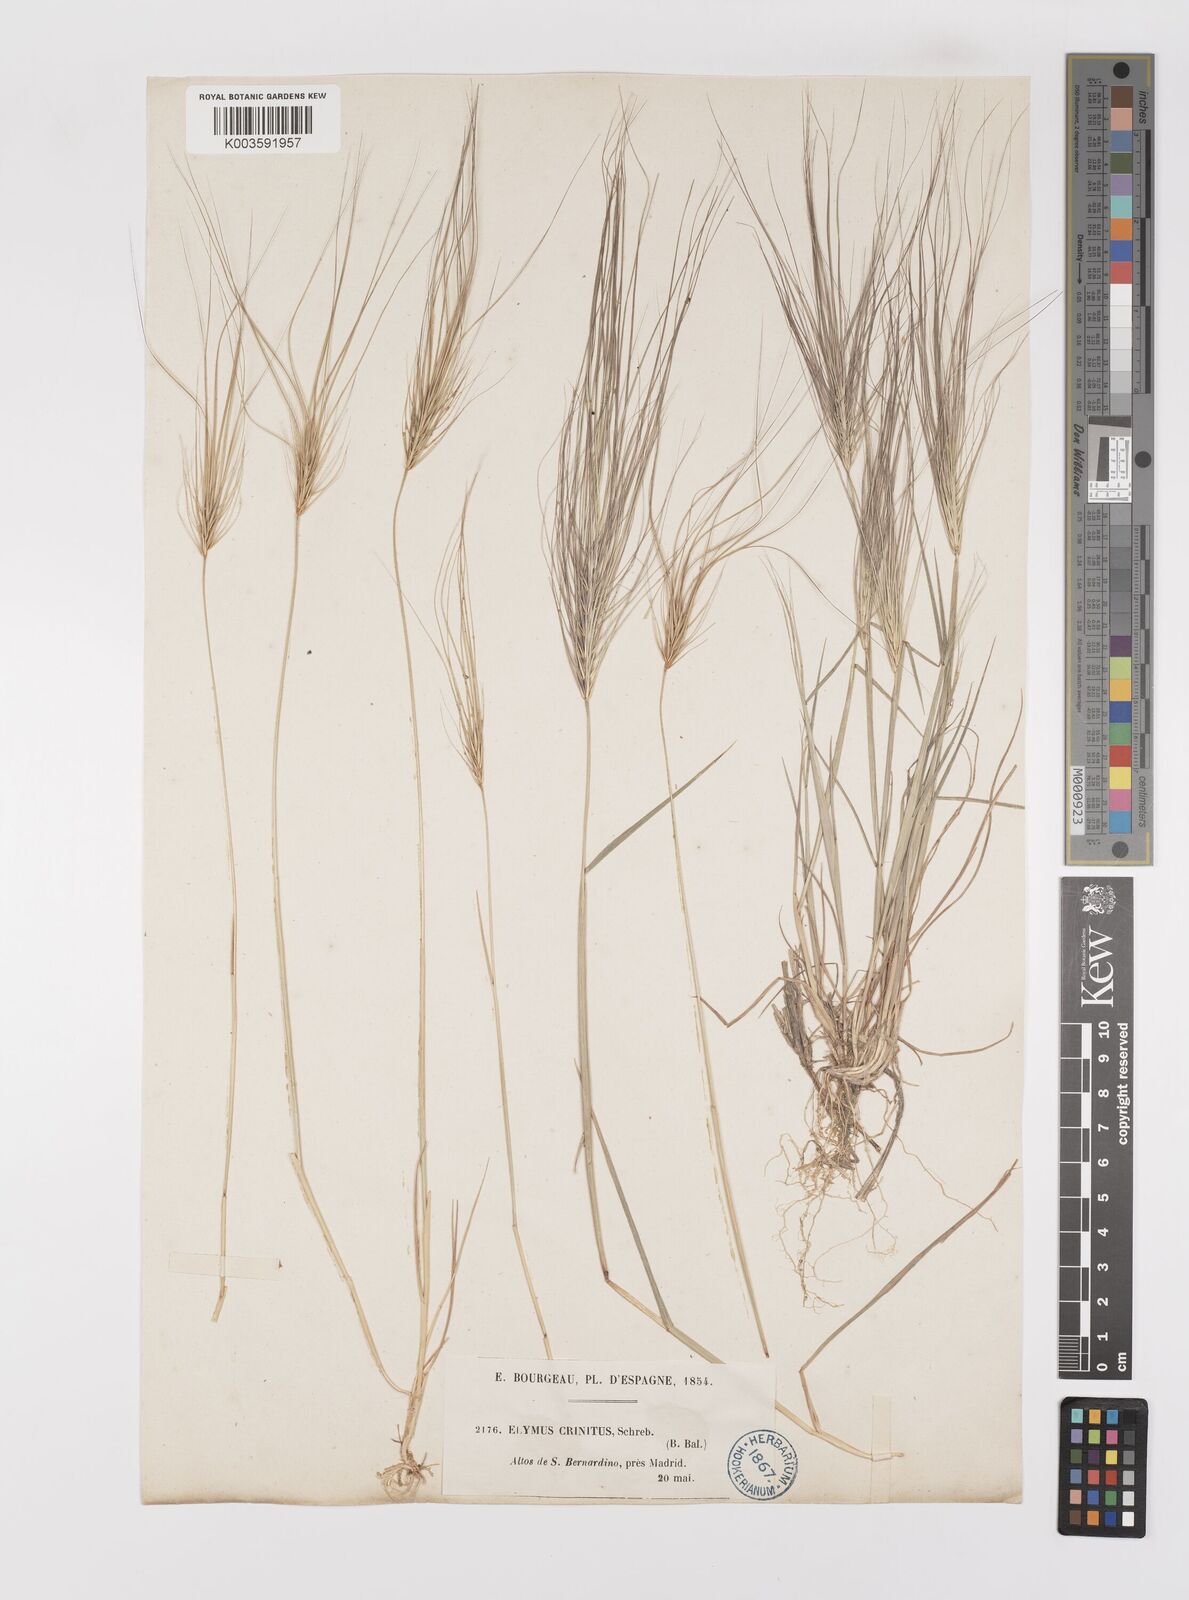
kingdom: Plantae
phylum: Tracheophyta
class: Liliopsida
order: Poales
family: Poaceae
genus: Taeniatherum
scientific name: Taeniatherum caput-medusae
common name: Medusahead
